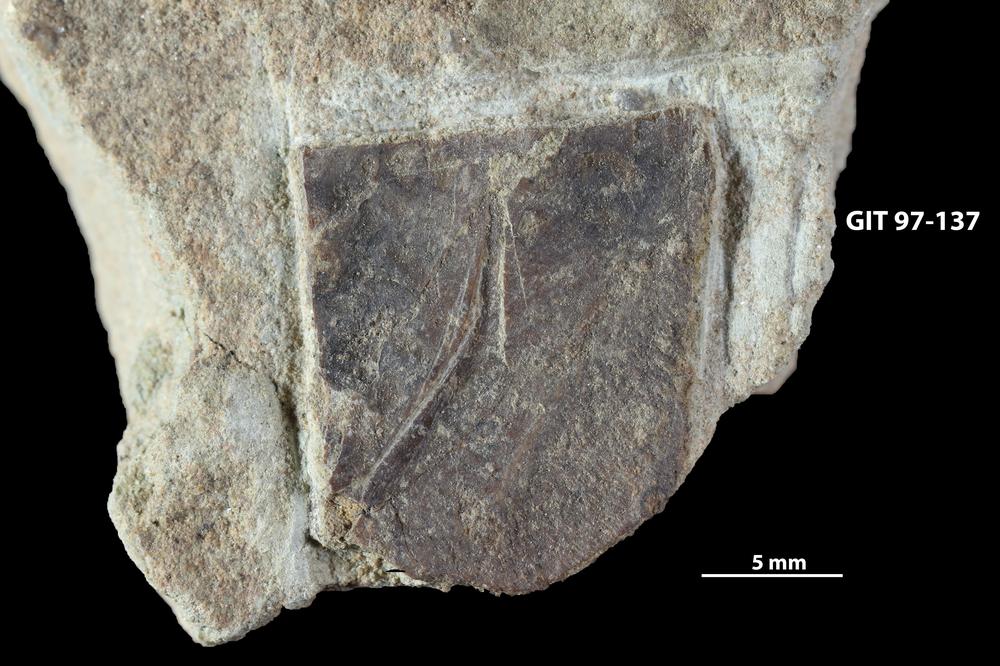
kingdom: Animalia
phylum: Chordata
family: Holonematidae
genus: Holonema
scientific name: Holonema
